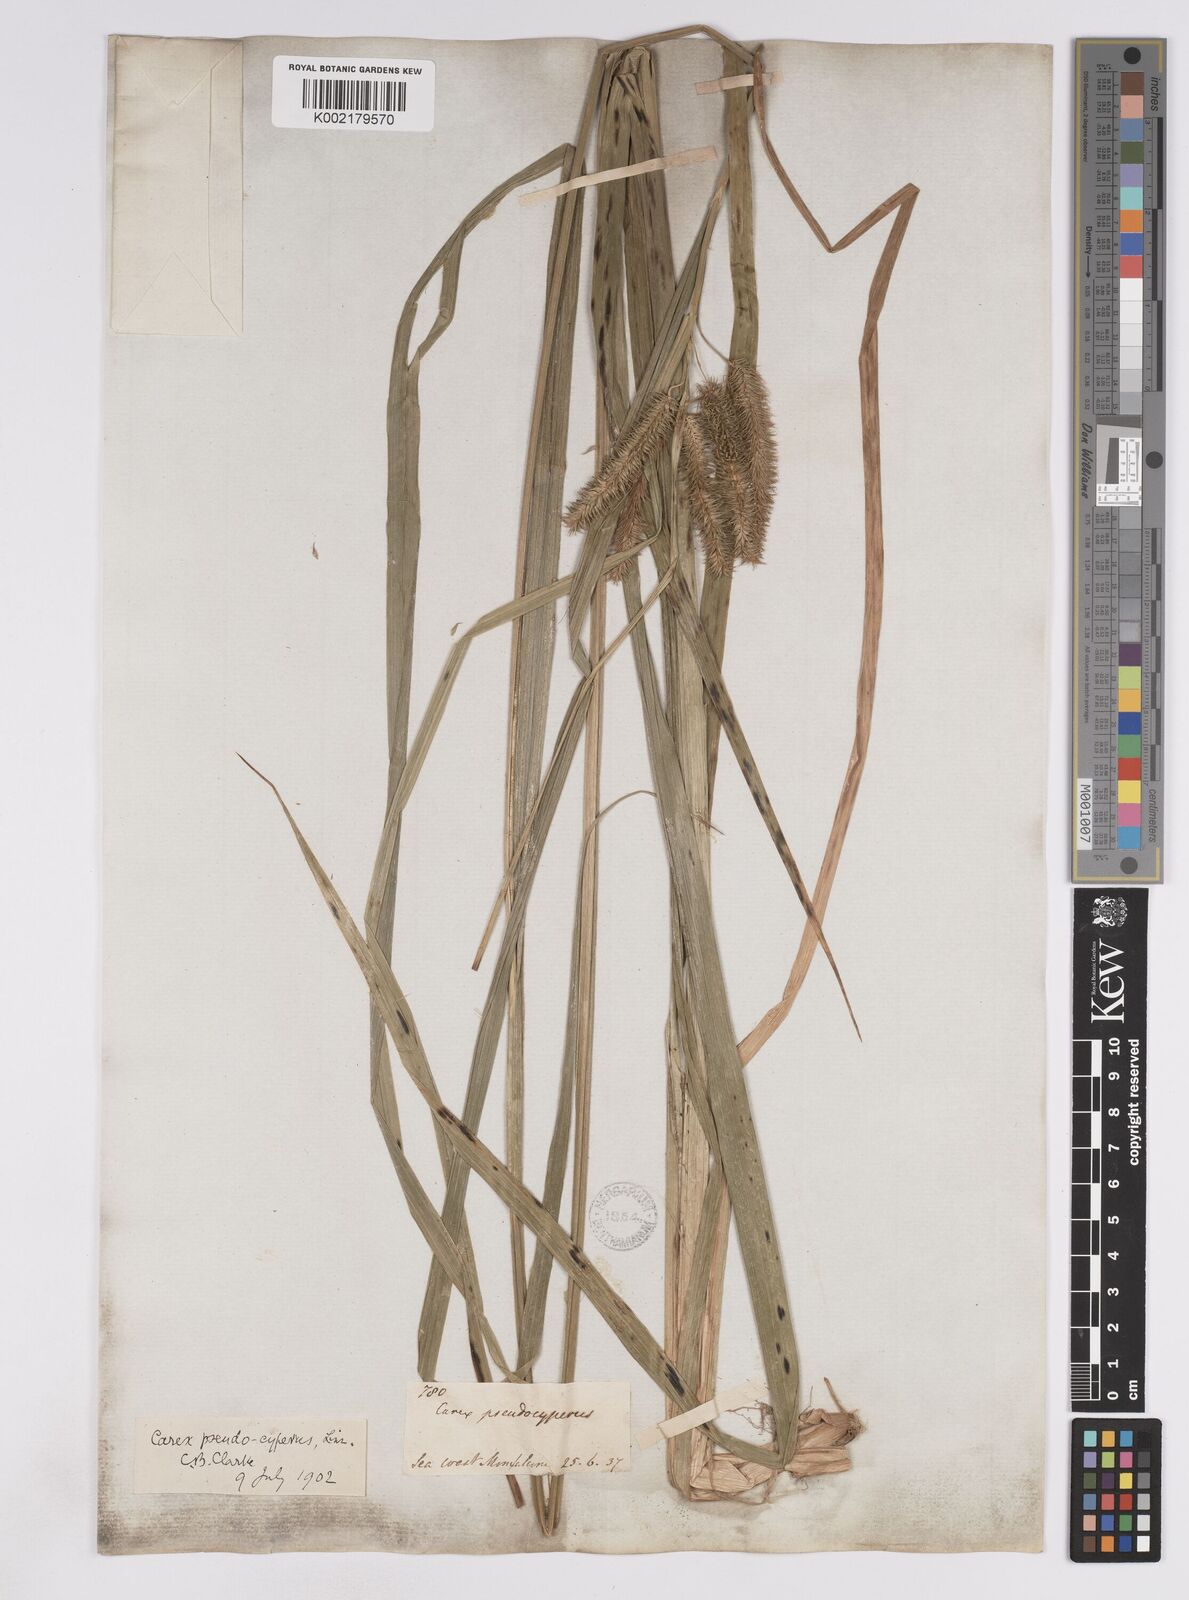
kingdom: Plantae
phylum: Tracheophyta
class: Liliopsida
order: Poales
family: Cyperaceae
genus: Carex
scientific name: Carex pseudocyperus
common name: Cyperus sedge
